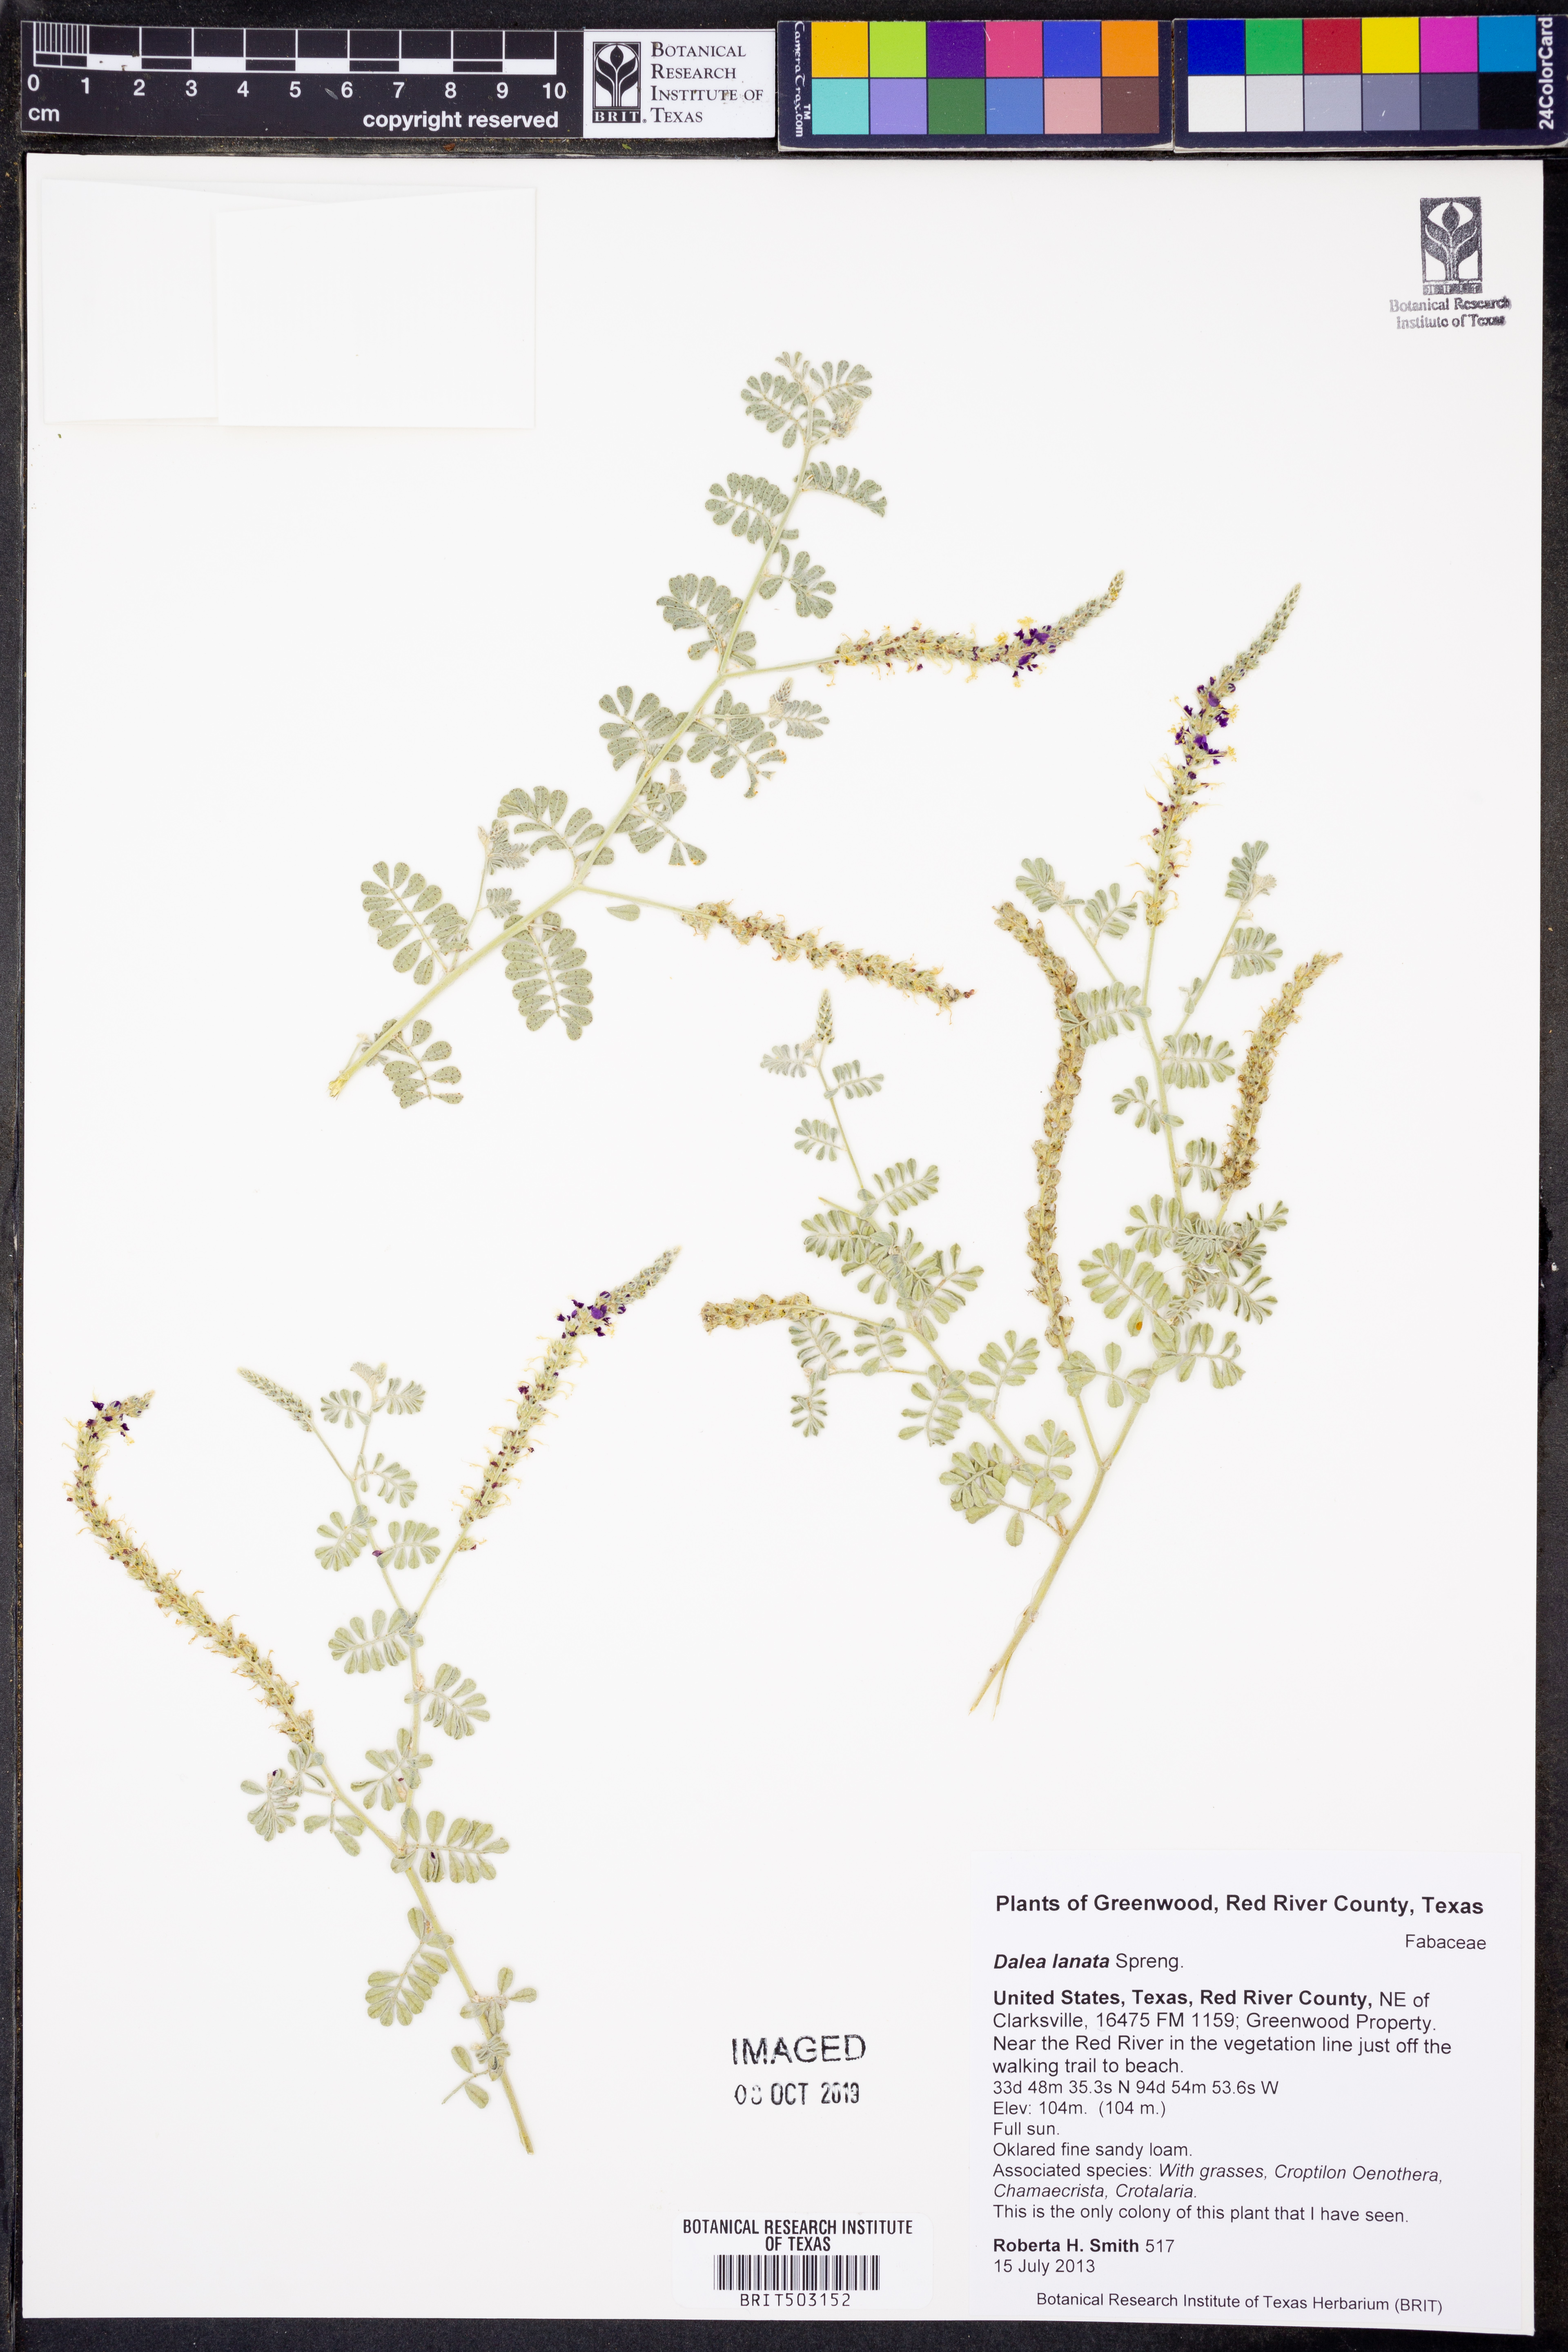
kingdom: Plantae
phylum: Tracheophyta
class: Magnoliopsida
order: Fabales
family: Fabaceae
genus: Dalea
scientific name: Dalea lanata
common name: Woolly dalea
